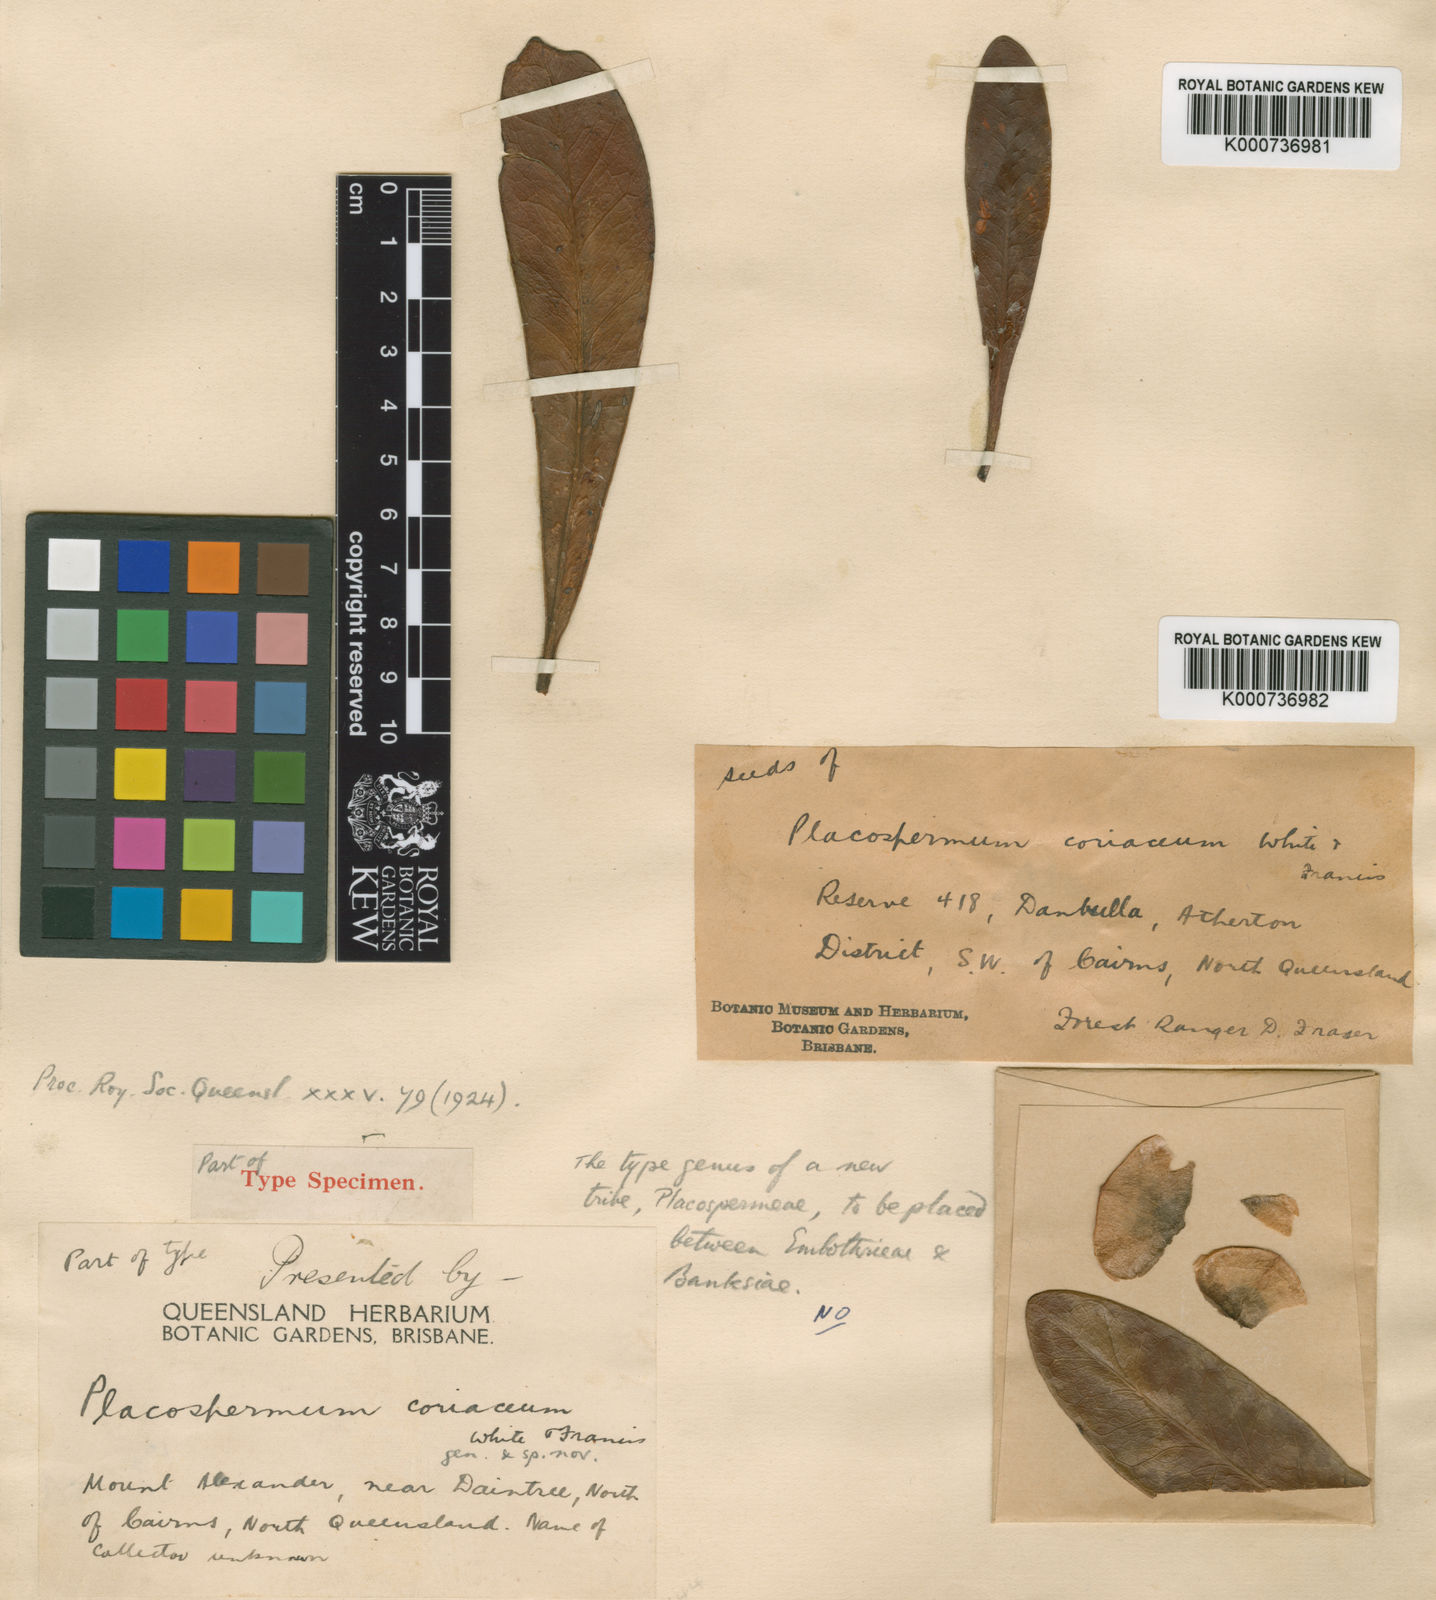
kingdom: Plantae
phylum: Tracheophyta
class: Magnoliopsida
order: Proteales
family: Proteaceae
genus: Placospermum
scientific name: Placospermum coriaceum
